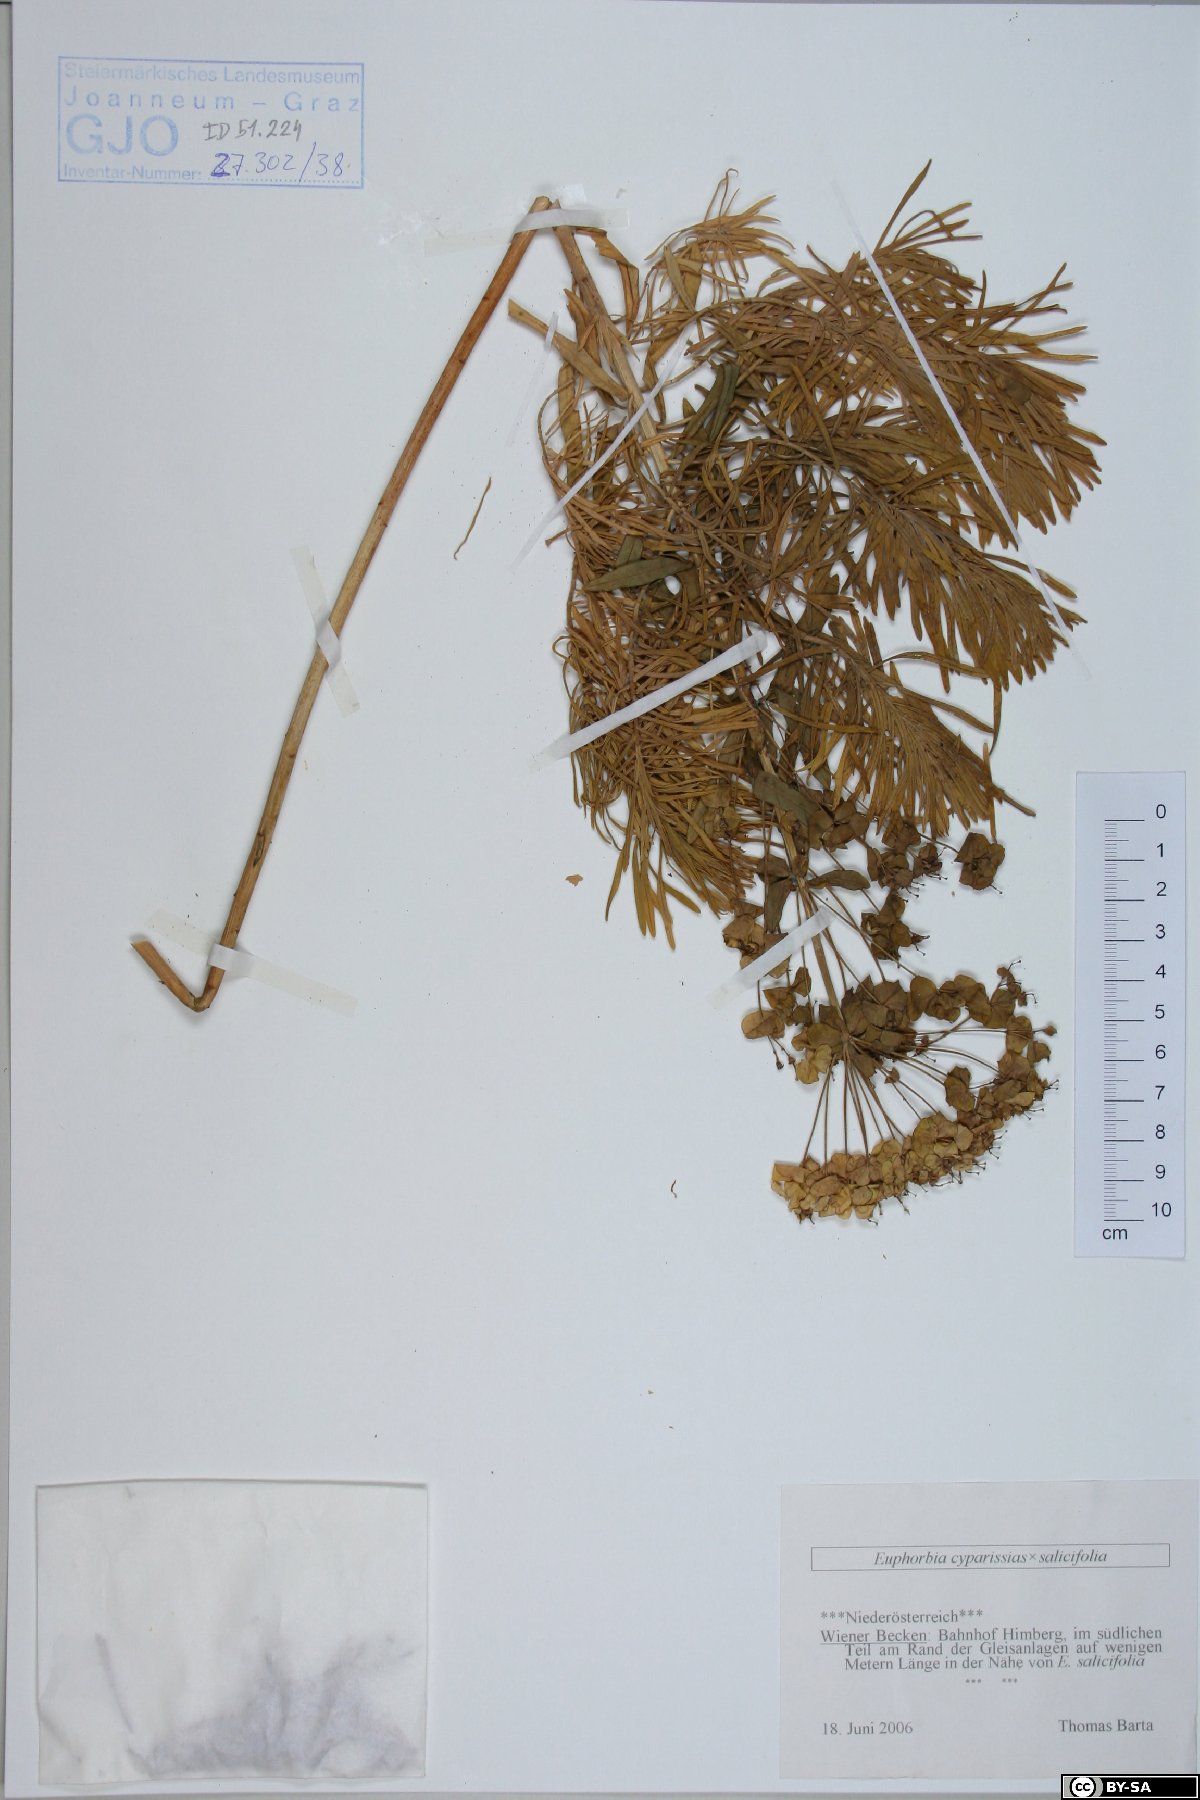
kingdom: Plantae
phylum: Tracheophyta
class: Magnoliopsida
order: Malpighiales
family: Euphorbiaceae
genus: Euphorbia
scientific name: Euphorbia cyparissias
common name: Cypress spurge
